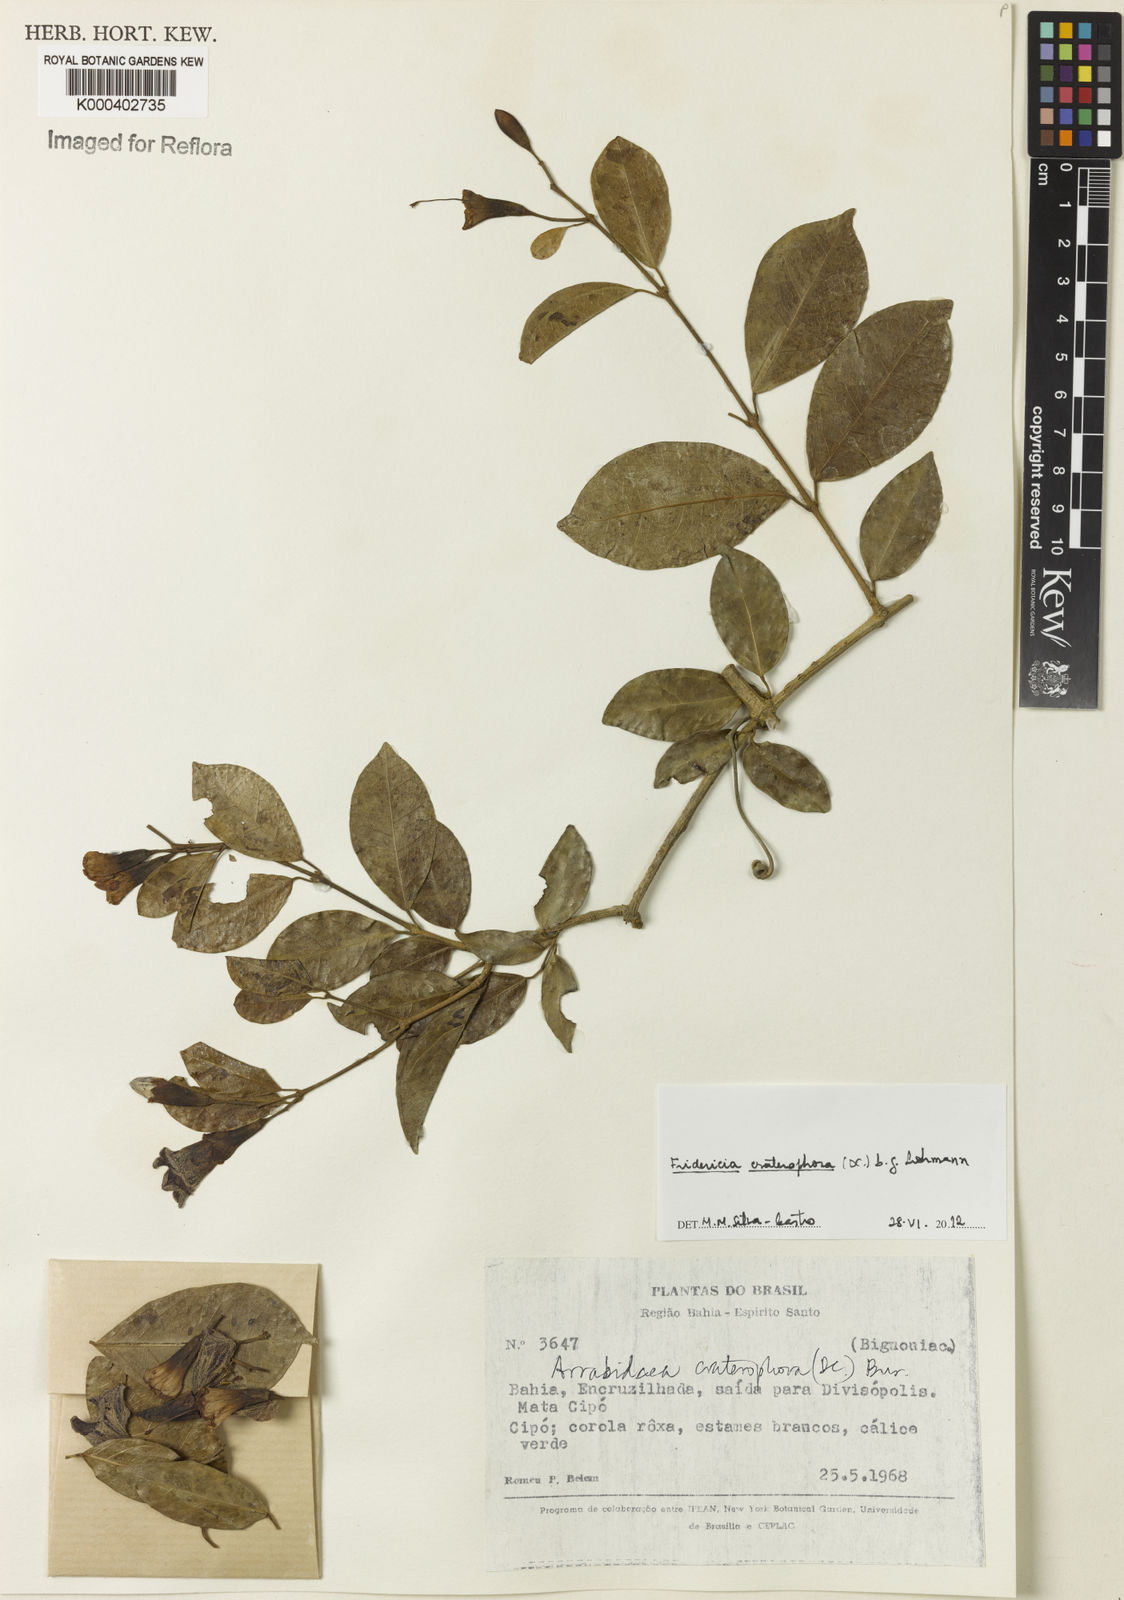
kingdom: Plantae
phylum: Tracheophyta
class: Magnoliopsida
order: Lamiales
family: Bignoniaceae
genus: Fridericia
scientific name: Fridericia craterophora
